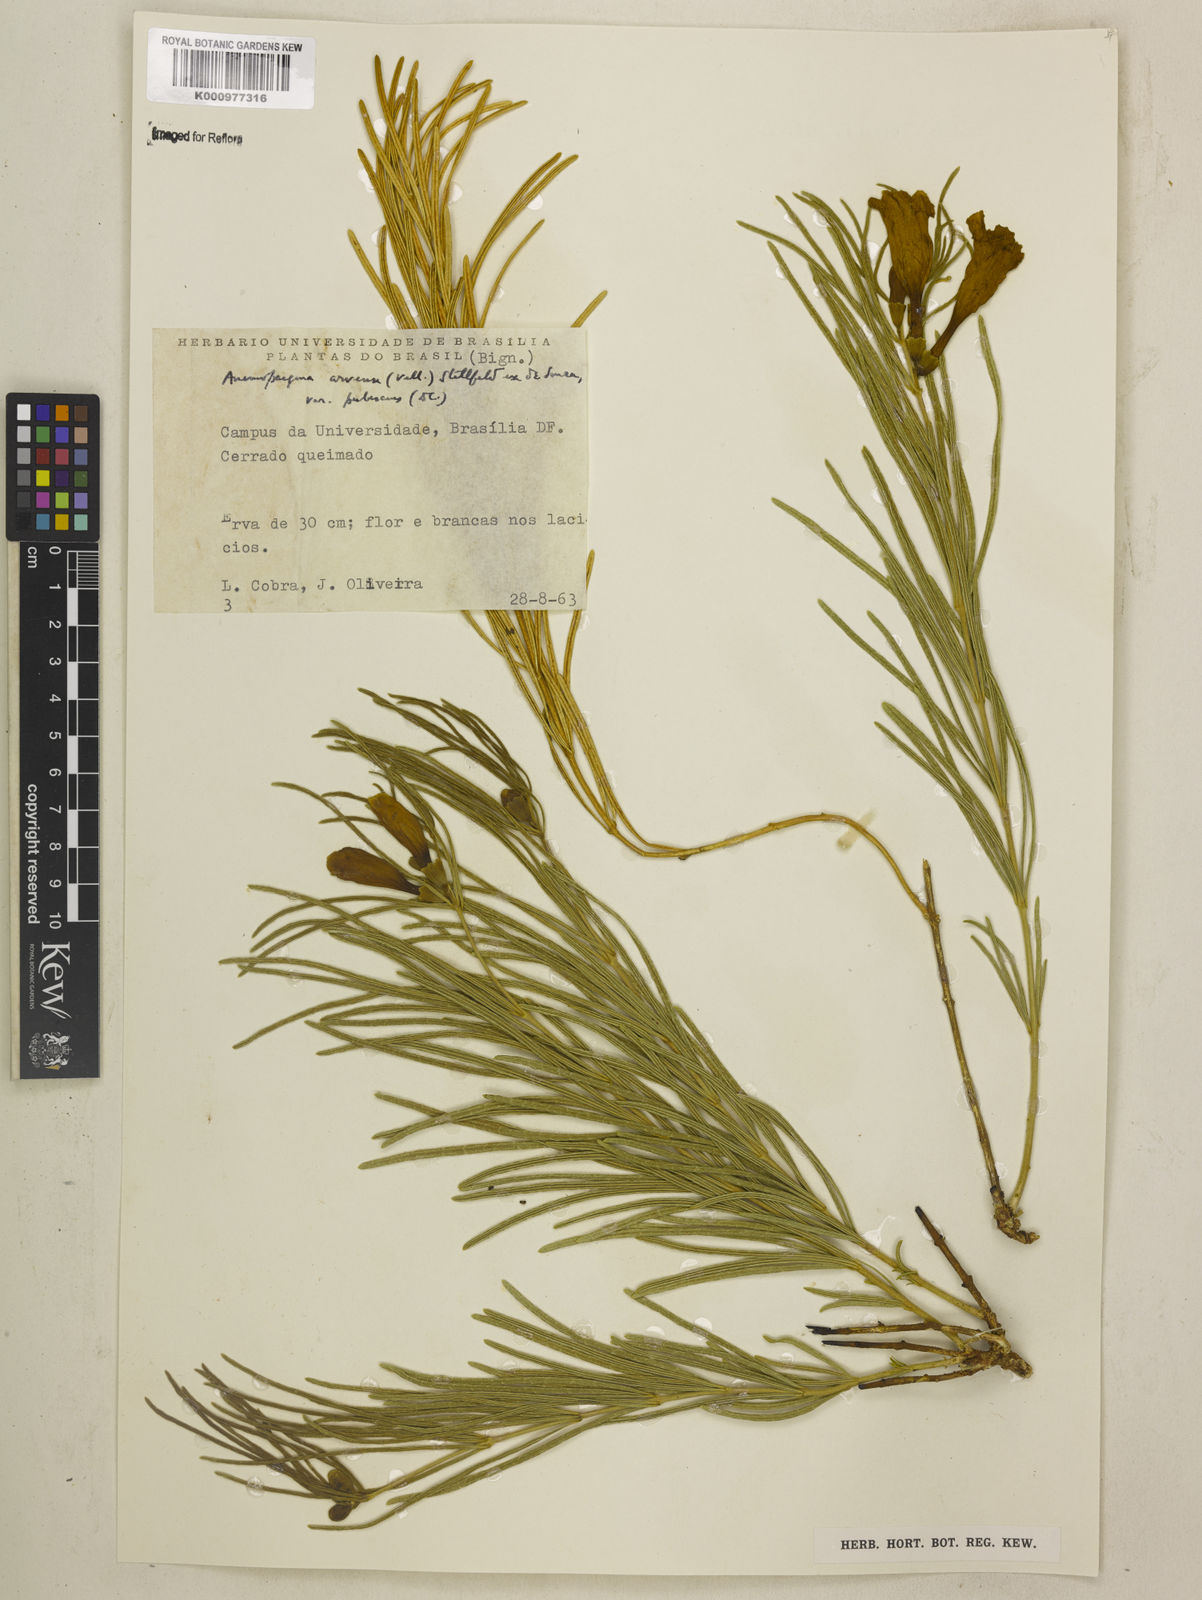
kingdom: Plantae
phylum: Tracheophyta
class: Magnoliopsida
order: Lamiales
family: Bignoniaceae
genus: Anemopaegma
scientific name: Anemopaegma arvense
